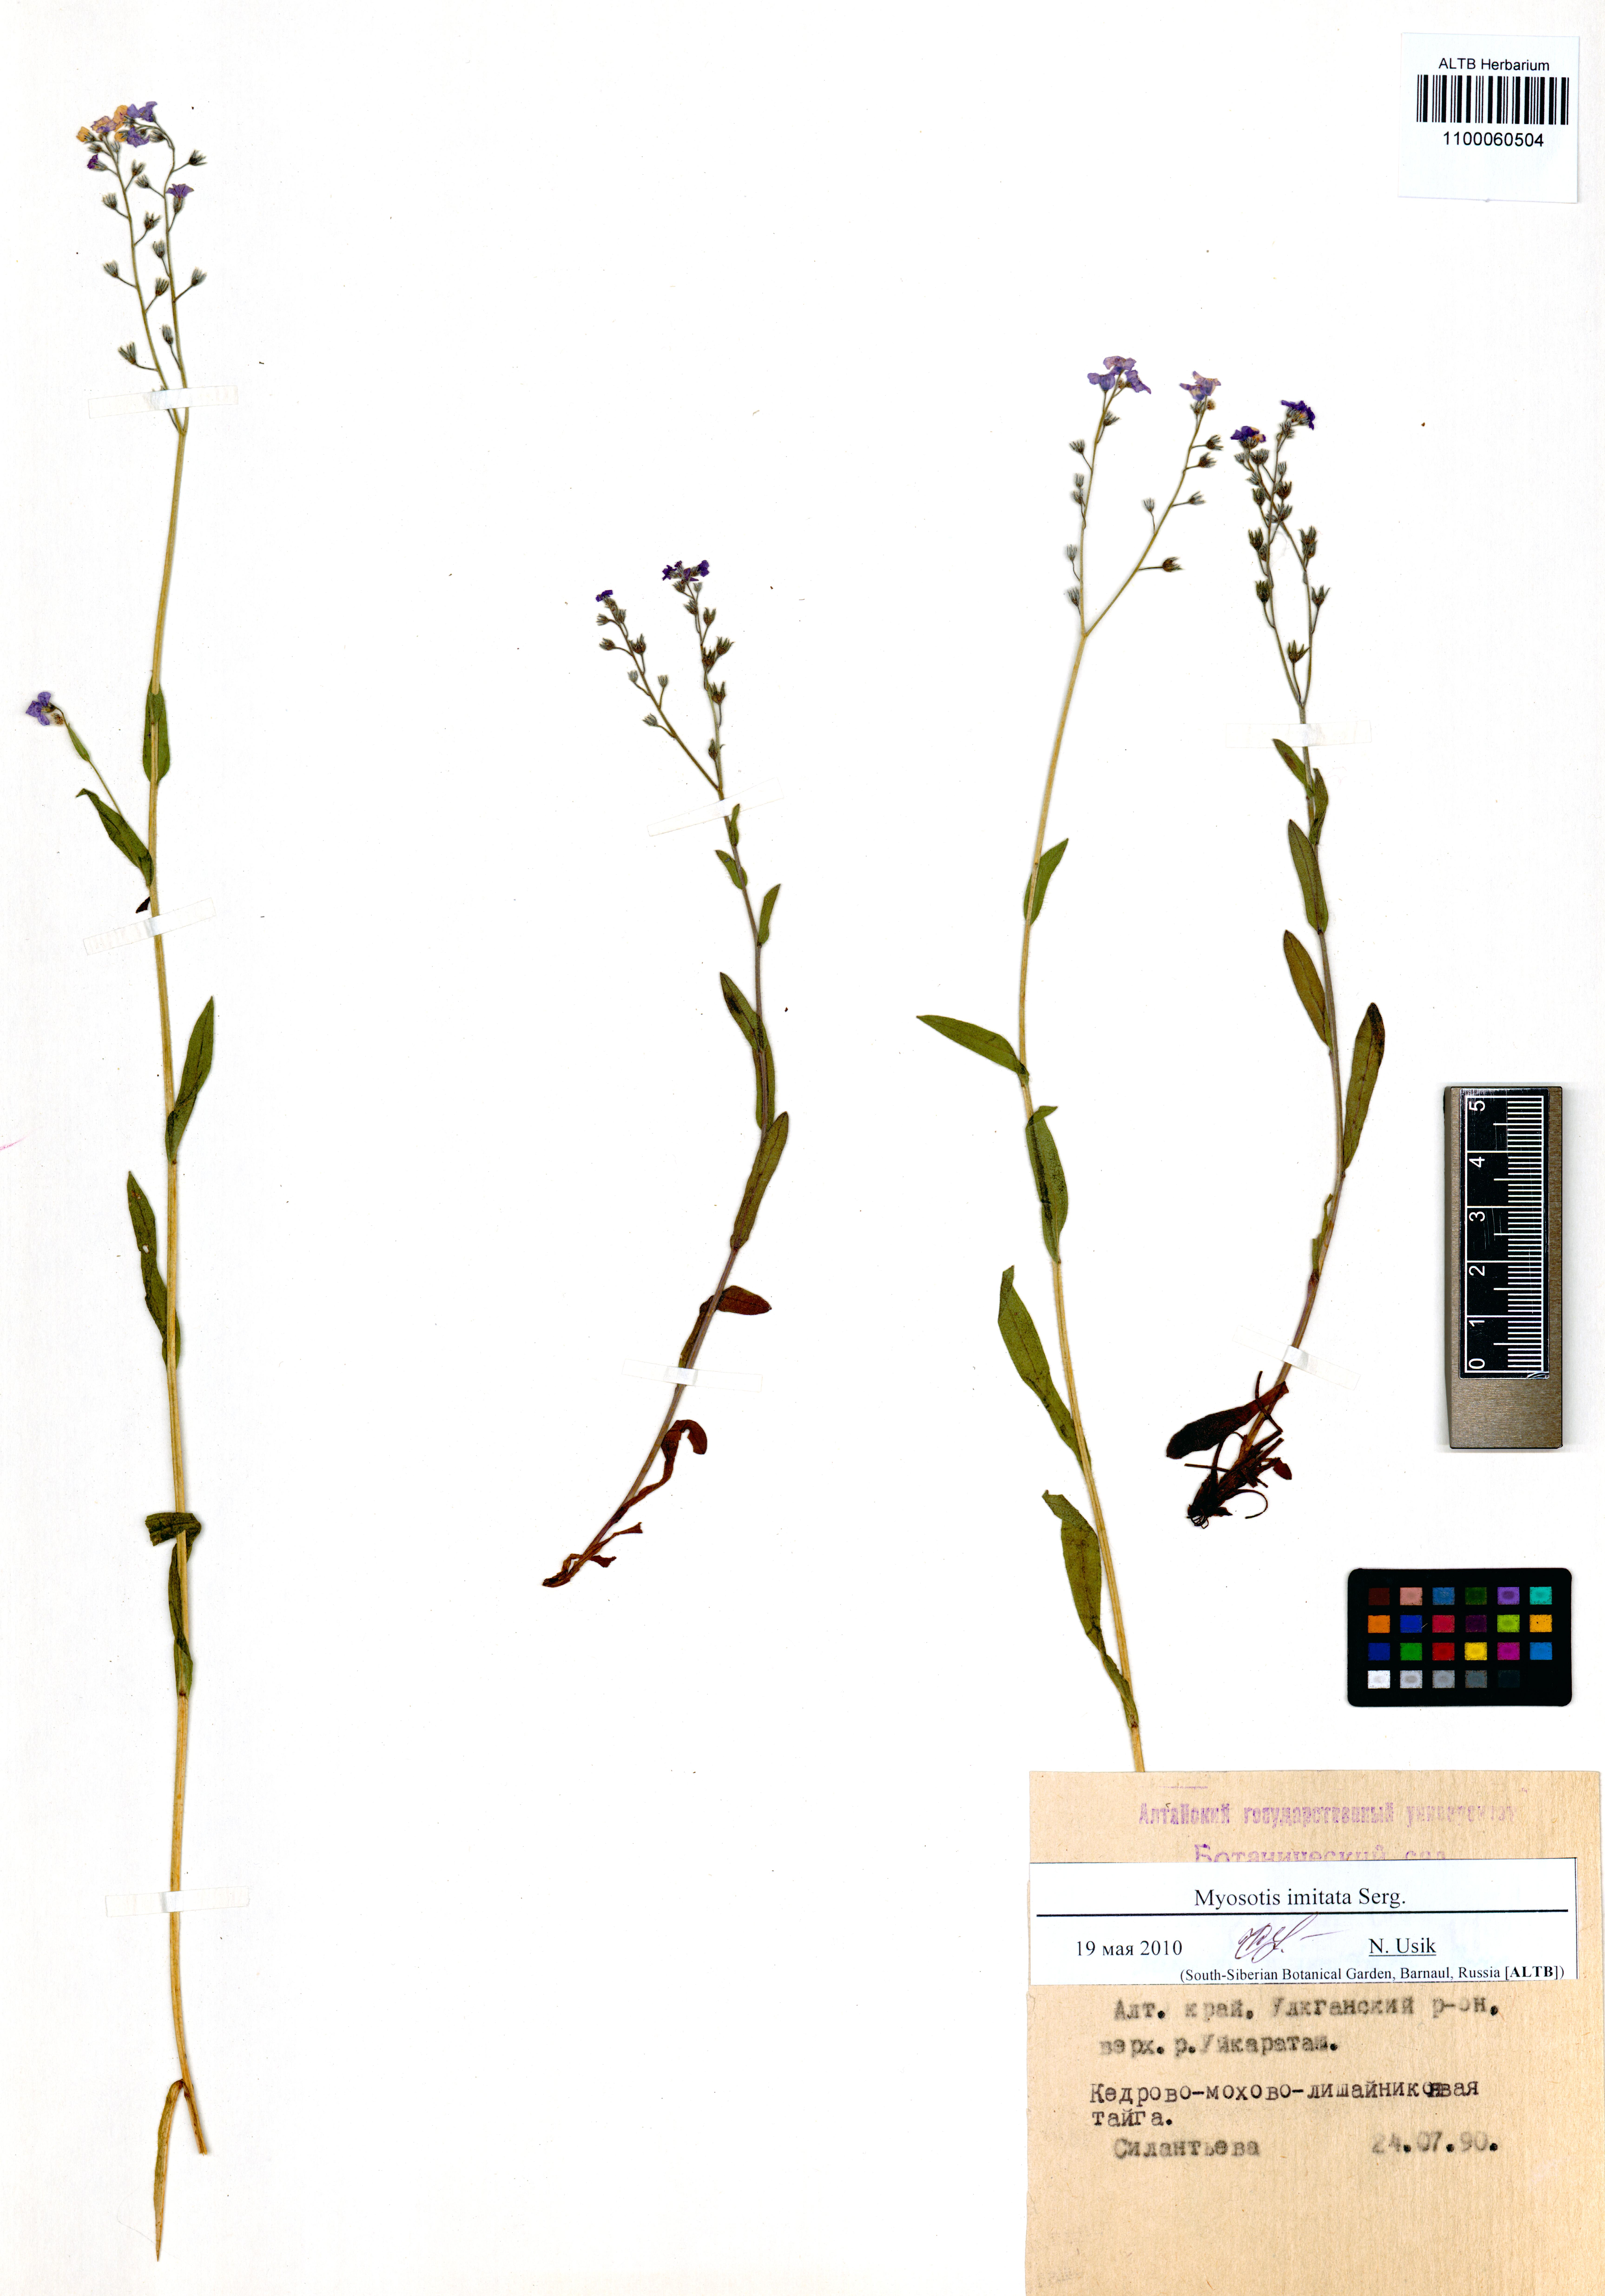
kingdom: Plantae
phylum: Tracheophyta
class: Magnoliopsida
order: Boraginales
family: Boraginaceae
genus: Myosotis
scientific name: Myosotis imitata
